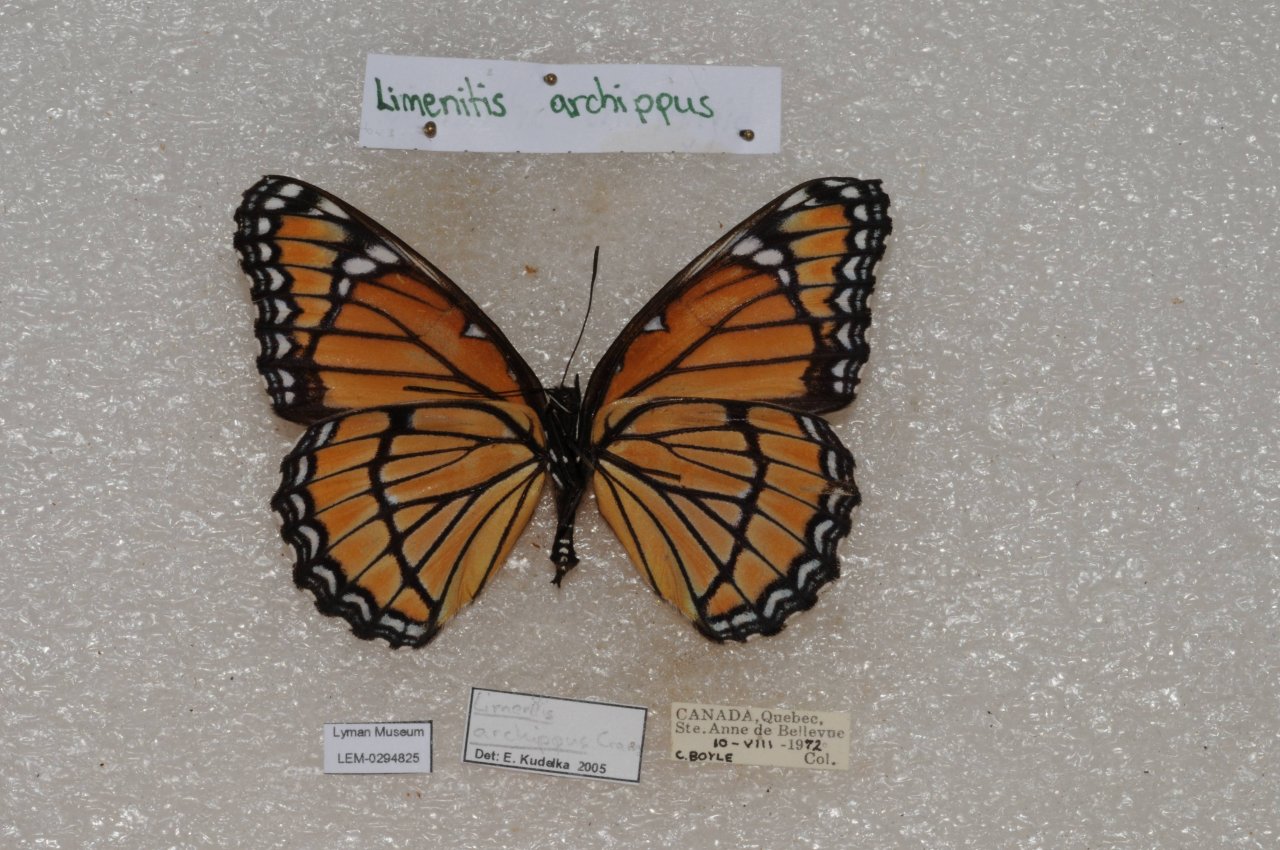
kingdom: Animalia
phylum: Arthropoda
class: Insecta
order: Lepidoptera
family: Nymphalidae
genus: Limenitis
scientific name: Limenitis archippus
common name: Viceroy
